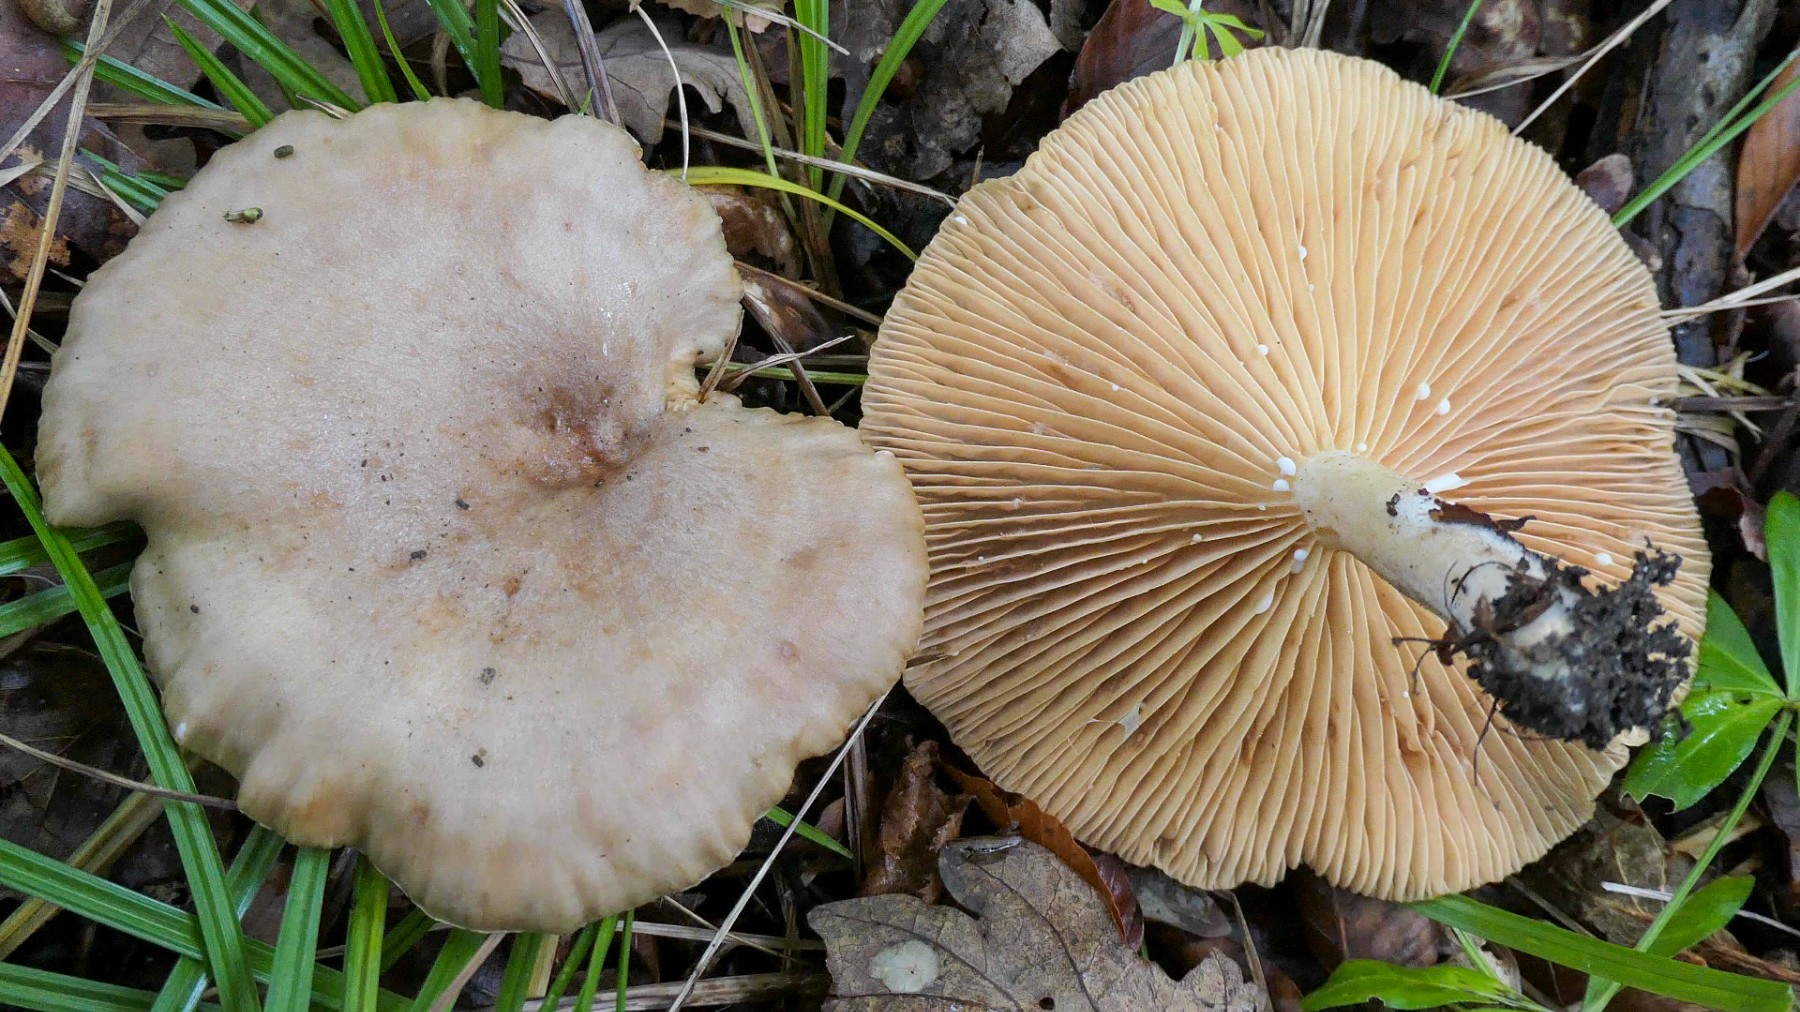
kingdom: Fungi
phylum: Basidiomycota
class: Agaricomycetes
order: Russulales
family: Russulaceae
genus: Lactarius
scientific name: Lactarius pyrogalus
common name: hassel-mælkehat
